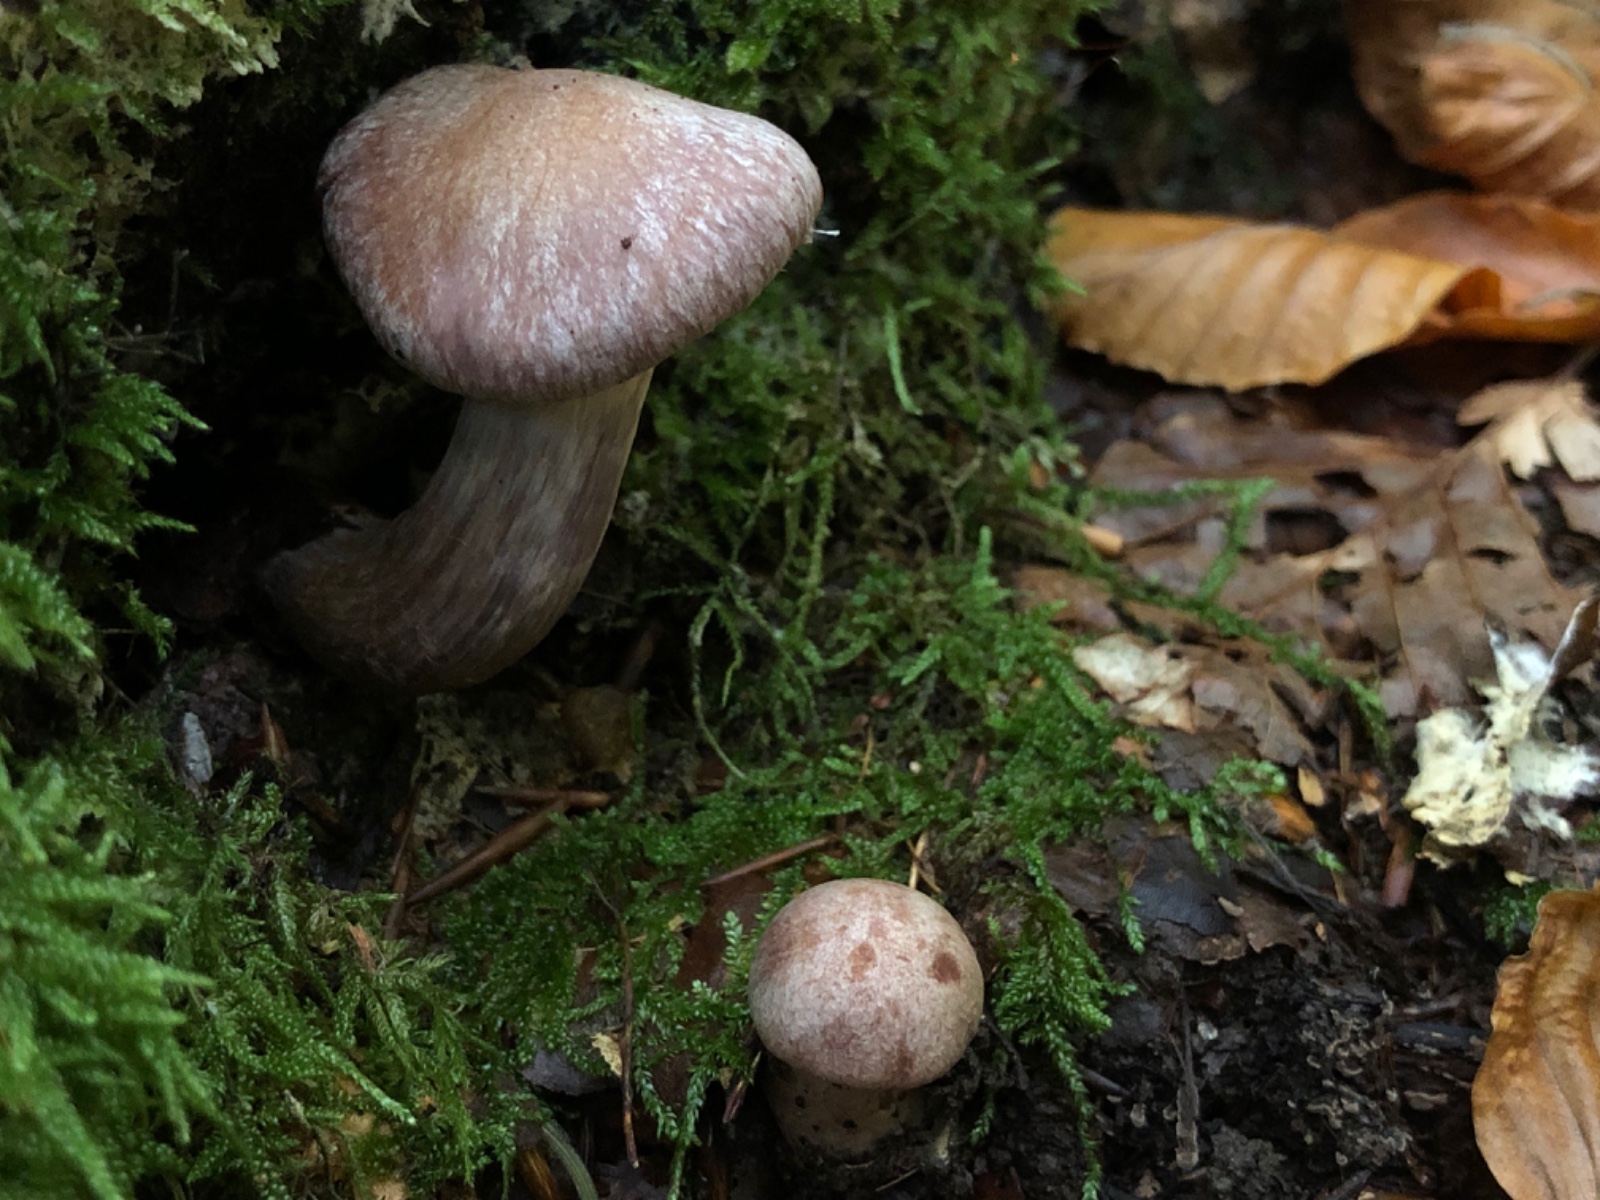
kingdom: Fungi
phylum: Basidiomycota
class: Agaricomycetes
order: Agaricales
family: Cortinariaceae
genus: Cortinarius
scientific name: Cortinarius torvus
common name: champignonagtig slørhat
